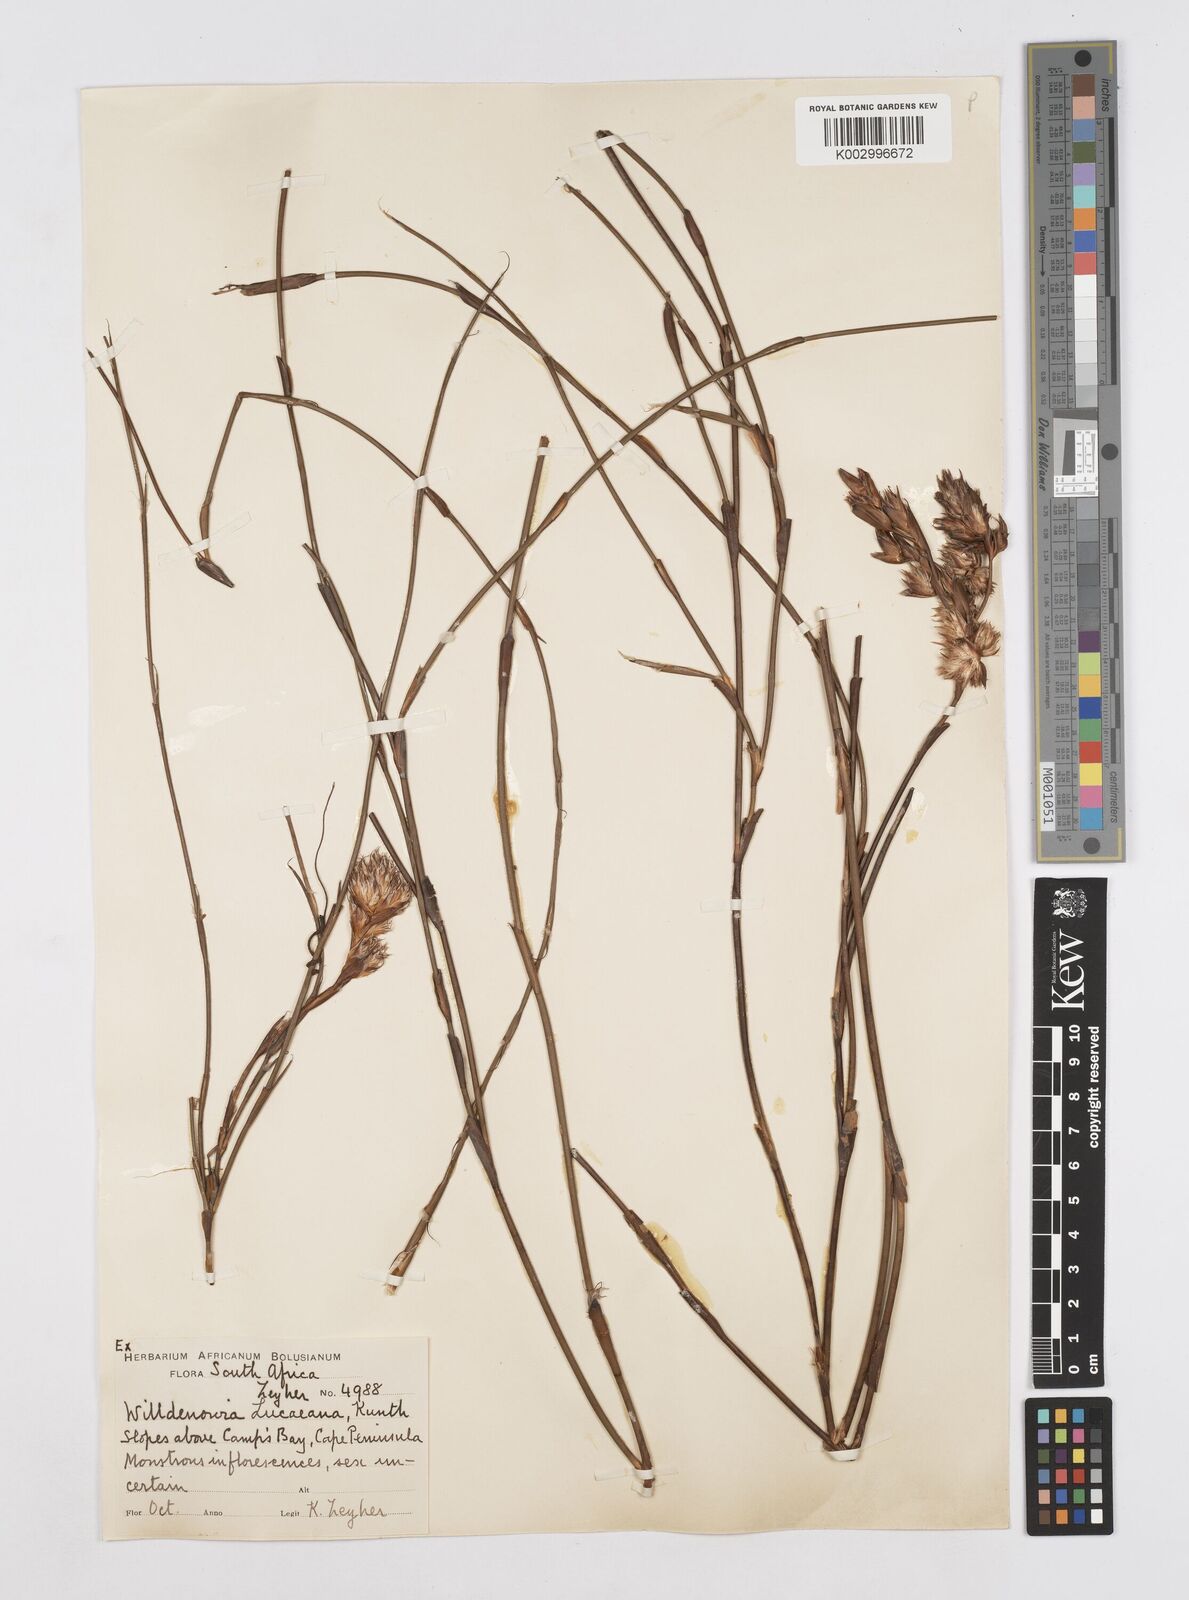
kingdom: Plantae
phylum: Tracheophyta
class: Liliopsida
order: Poales
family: Restionaceae
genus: Willdenowia
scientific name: Willdenowia glomerata
